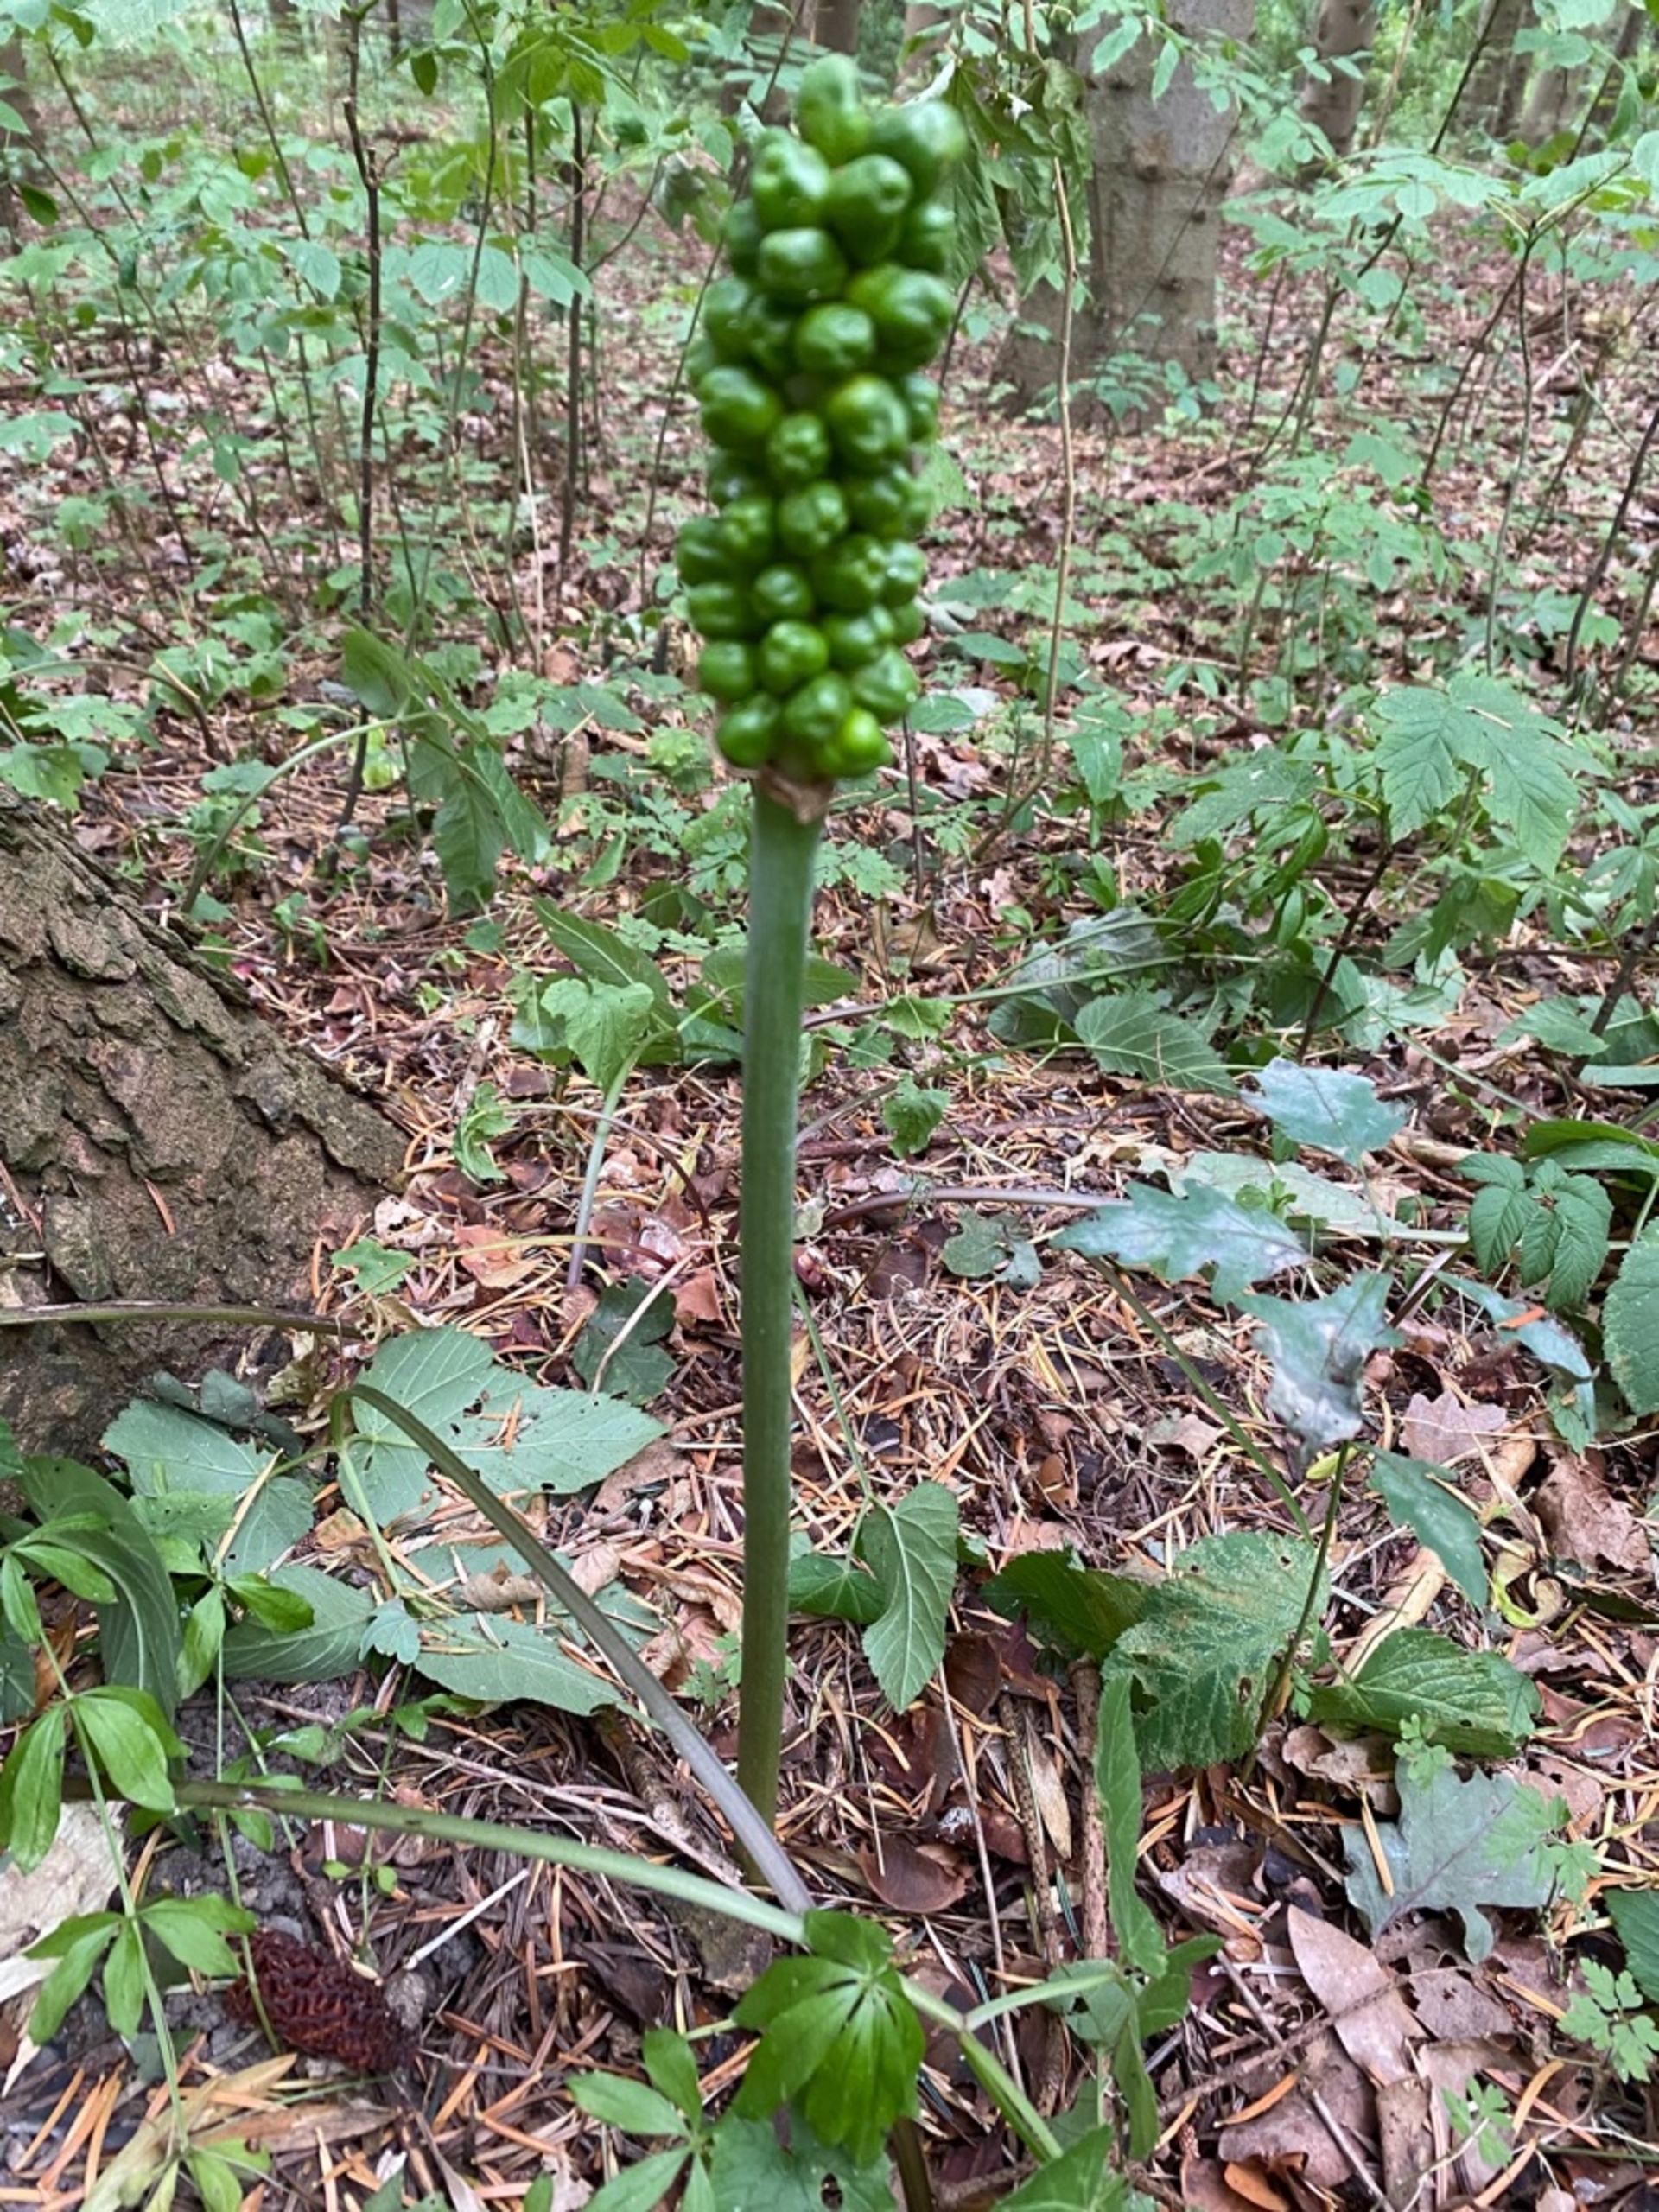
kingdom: Plantae
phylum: Tracheophyta
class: Liliopsida
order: Alismatales
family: Araceae
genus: Arum
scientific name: Arum maculatum
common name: Plettet arum
